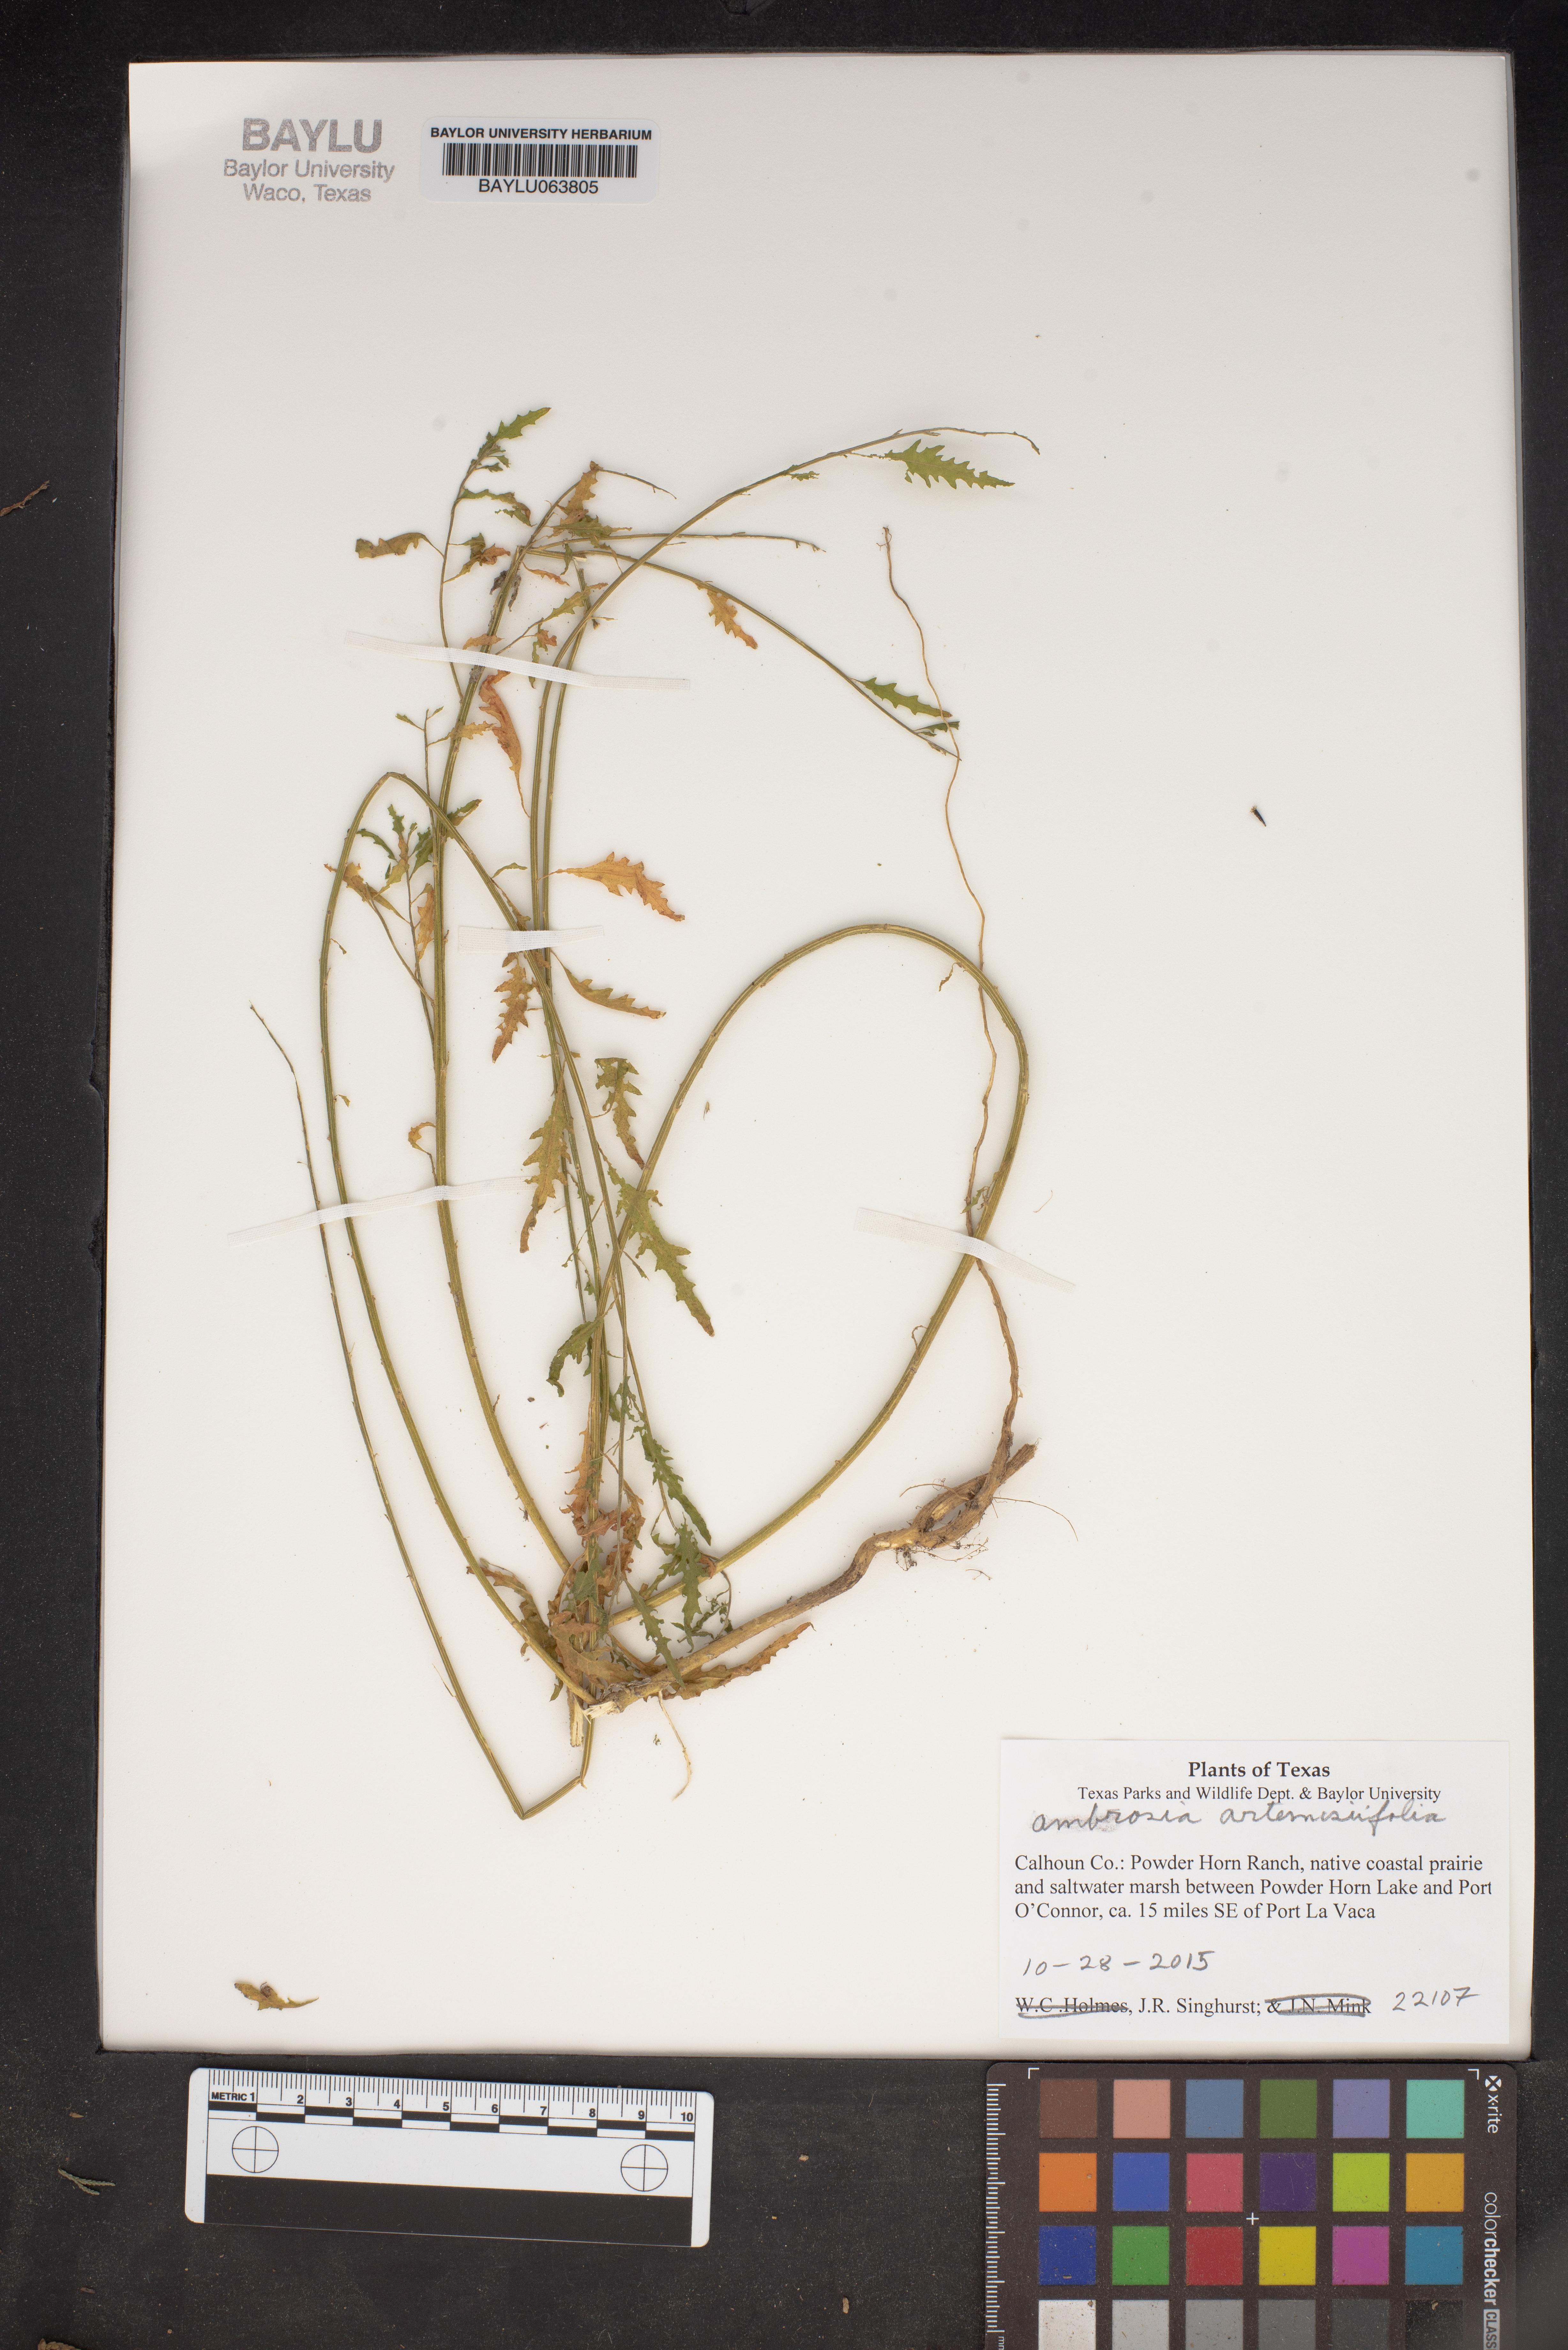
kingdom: Plantae
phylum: Tracheophyta
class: Magnoliopsida
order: Asterales
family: Asteraceae
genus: Ambrosia
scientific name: Ambrosia polystachya
